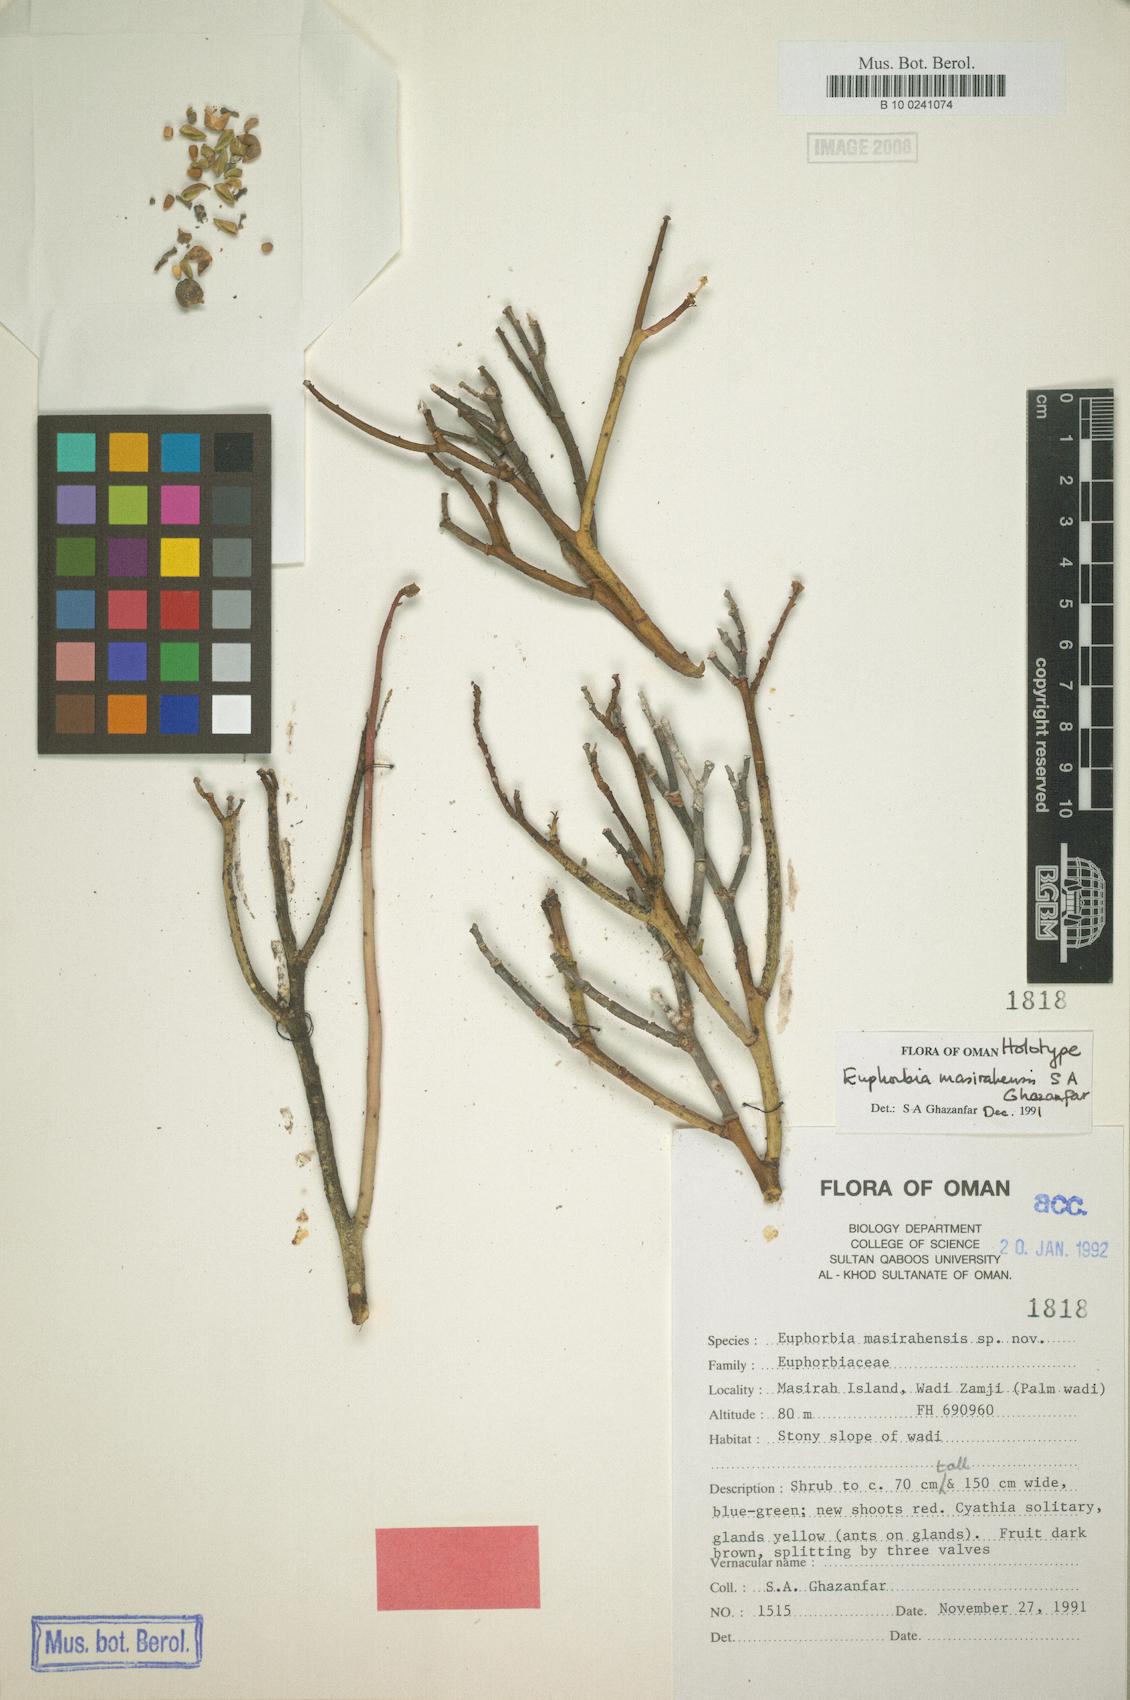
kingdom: Plantae
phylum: Tracheophyta
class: Magnoliopsida
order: Malpighiales
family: Euphorbiaceae
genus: Euphorbia
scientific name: Euphorbia larica
